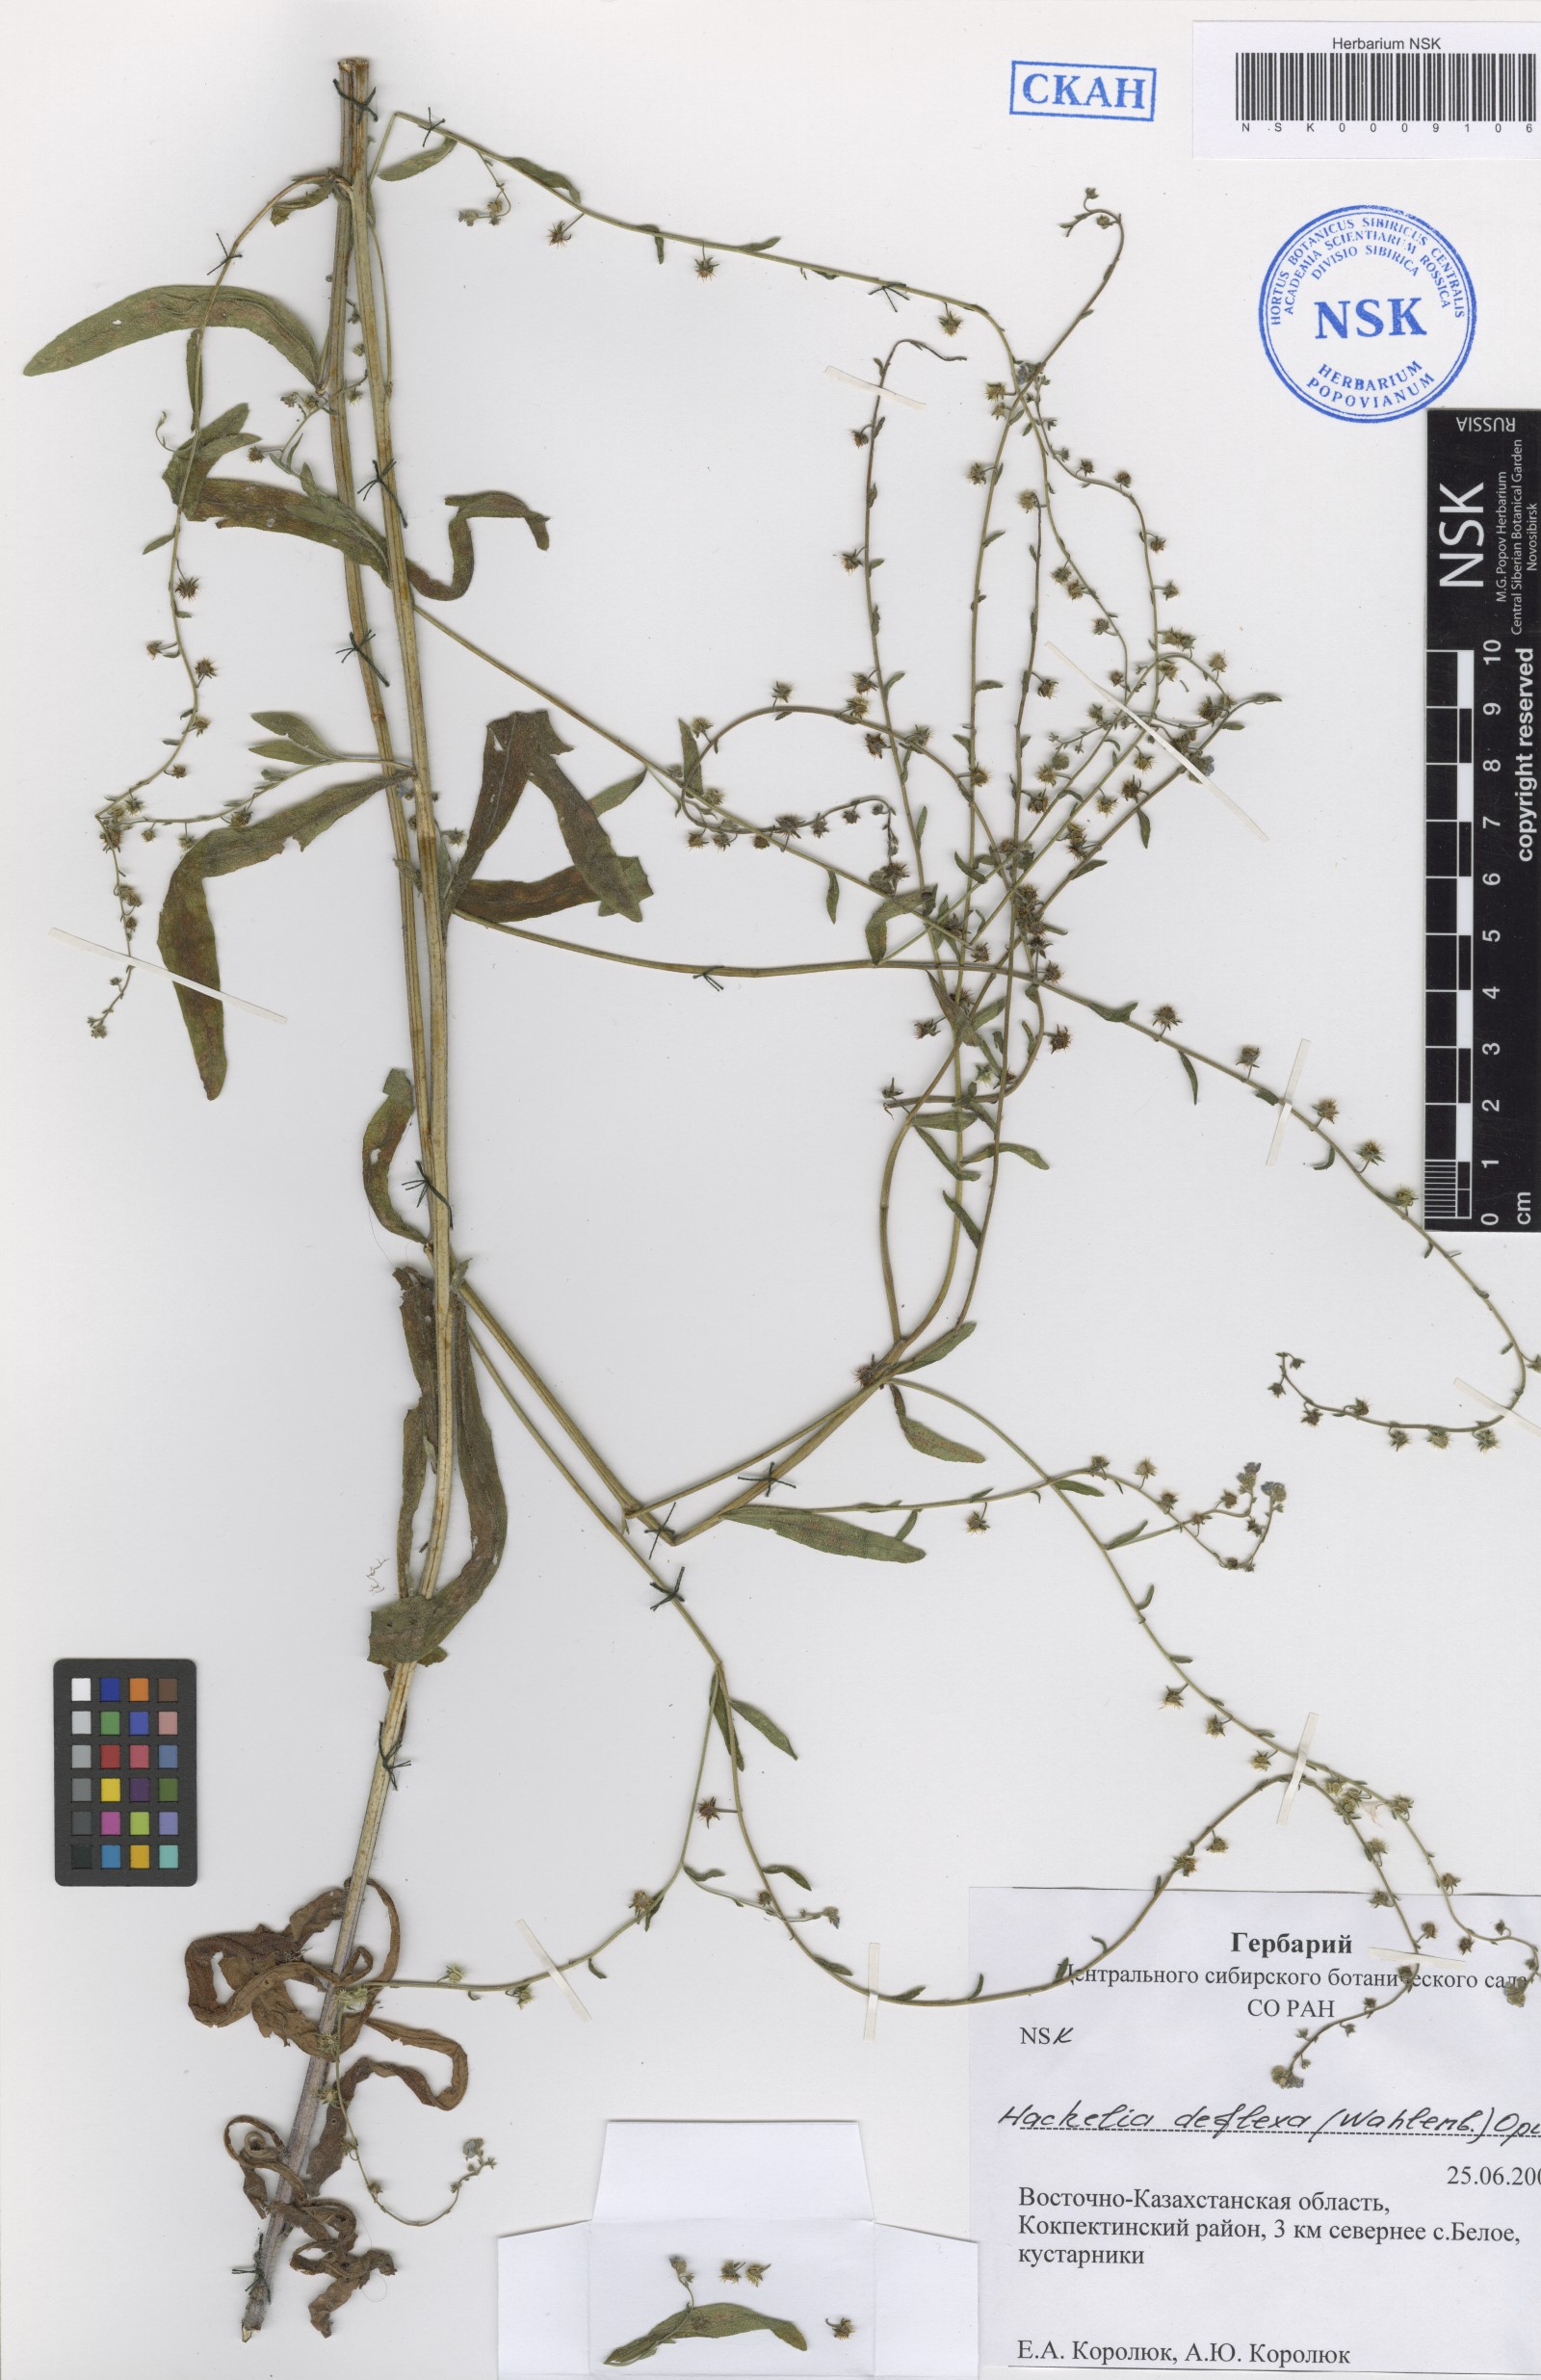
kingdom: Plantae
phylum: Tracheophyta
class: Magnoliopsida
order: Boraginales
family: Boraginaceae
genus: Hackelia
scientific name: Hackelia deflexa
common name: Nodding stickseed
